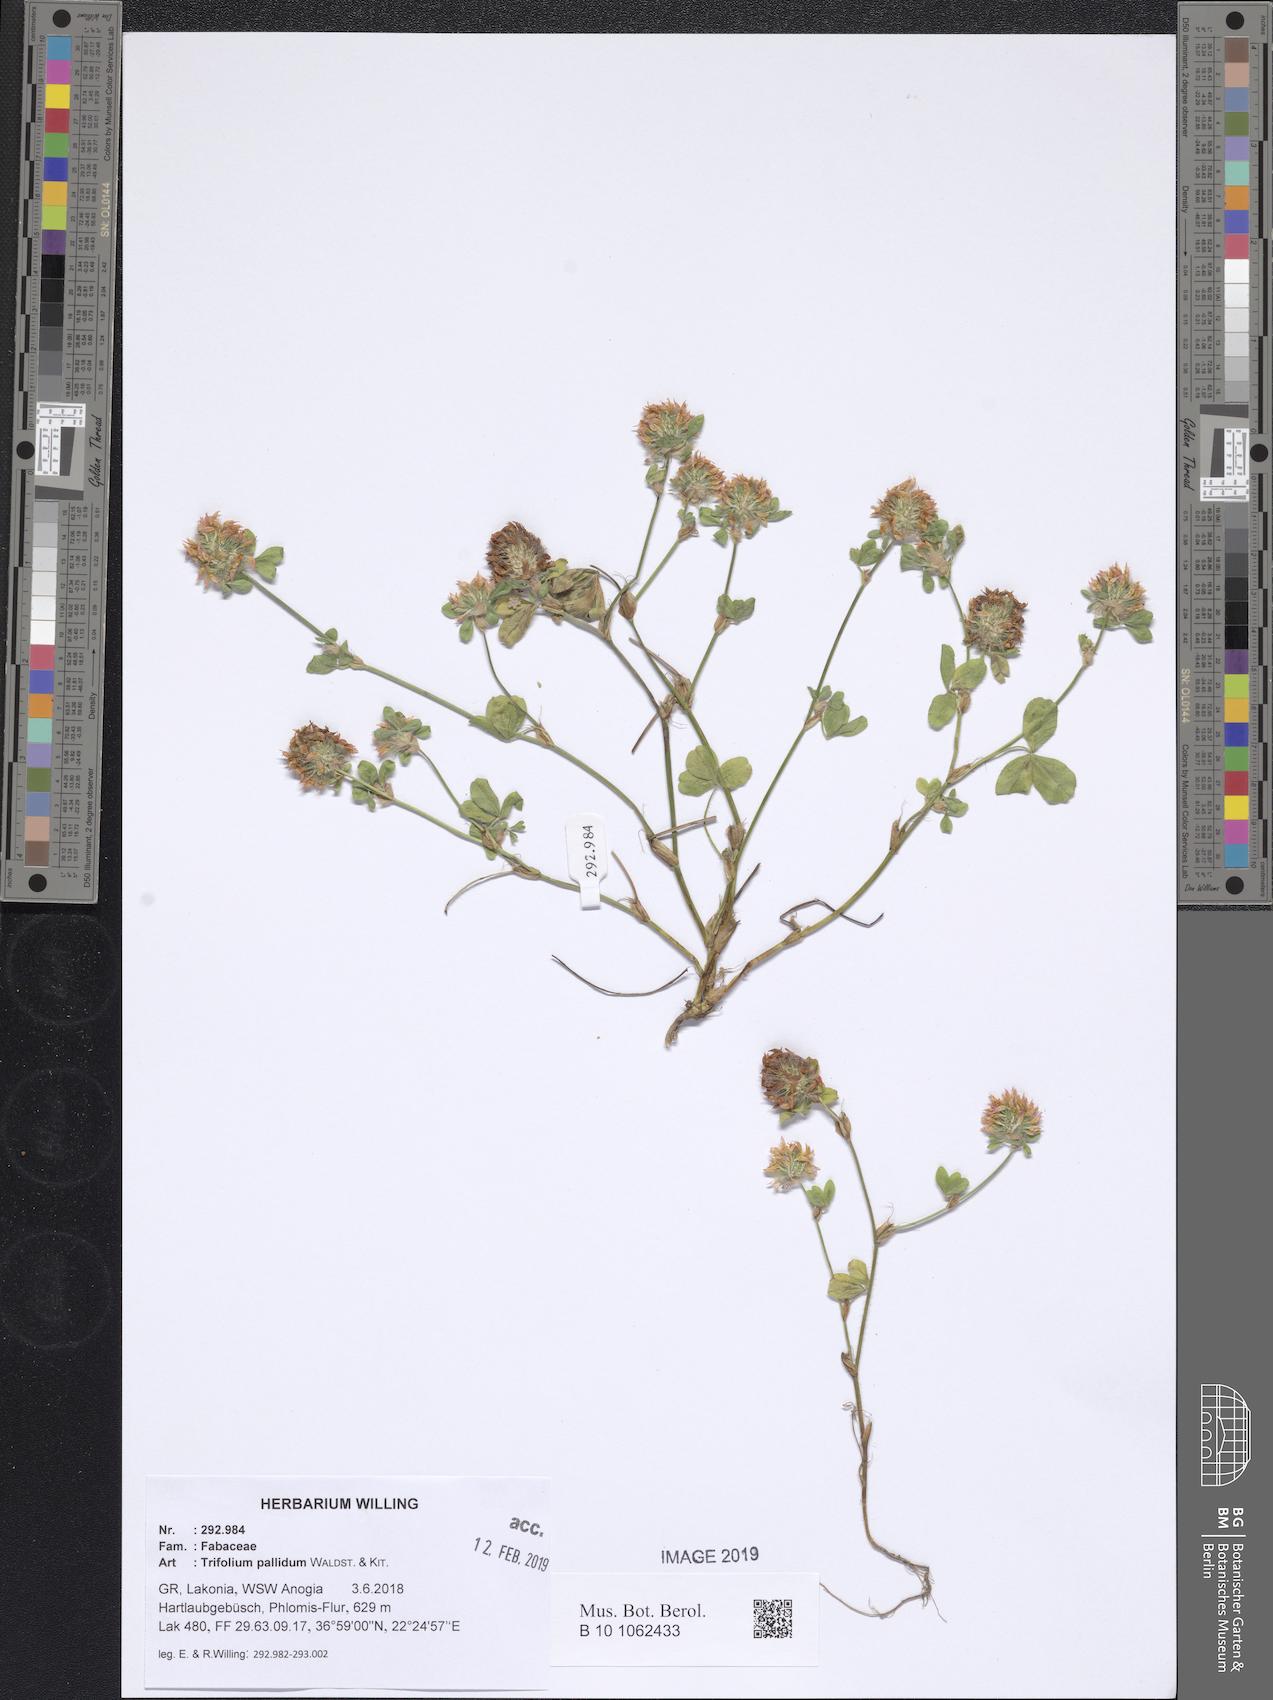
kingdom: Plantae
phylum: Tracheophyta
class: Magnoliopsida
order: Fabales
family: Fabaceae
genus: Trifolium
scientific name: Trifolium pallidum
